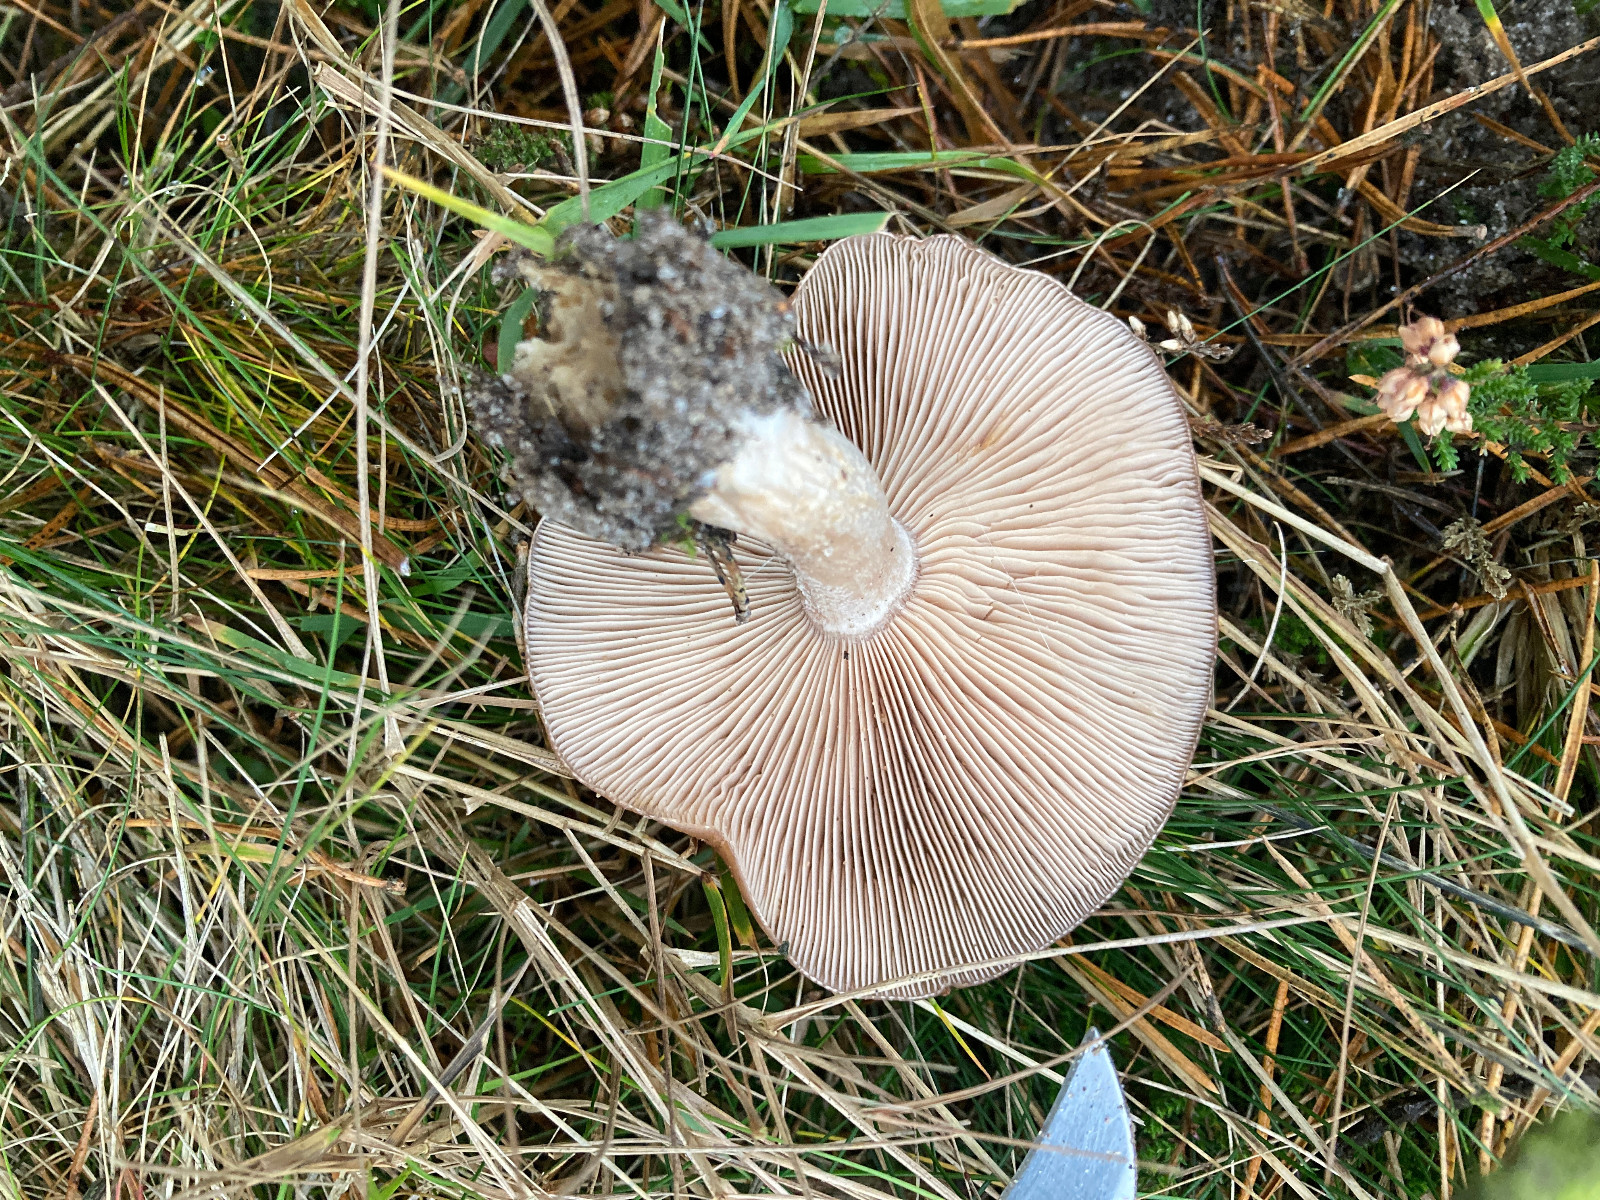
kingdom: Fungi
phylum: Basidiomycota
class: Agaricomycetes
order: Agaricales
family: Tricholomataceae
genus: Lepista
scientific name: Lepista nuda
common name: violet hekseringshat
